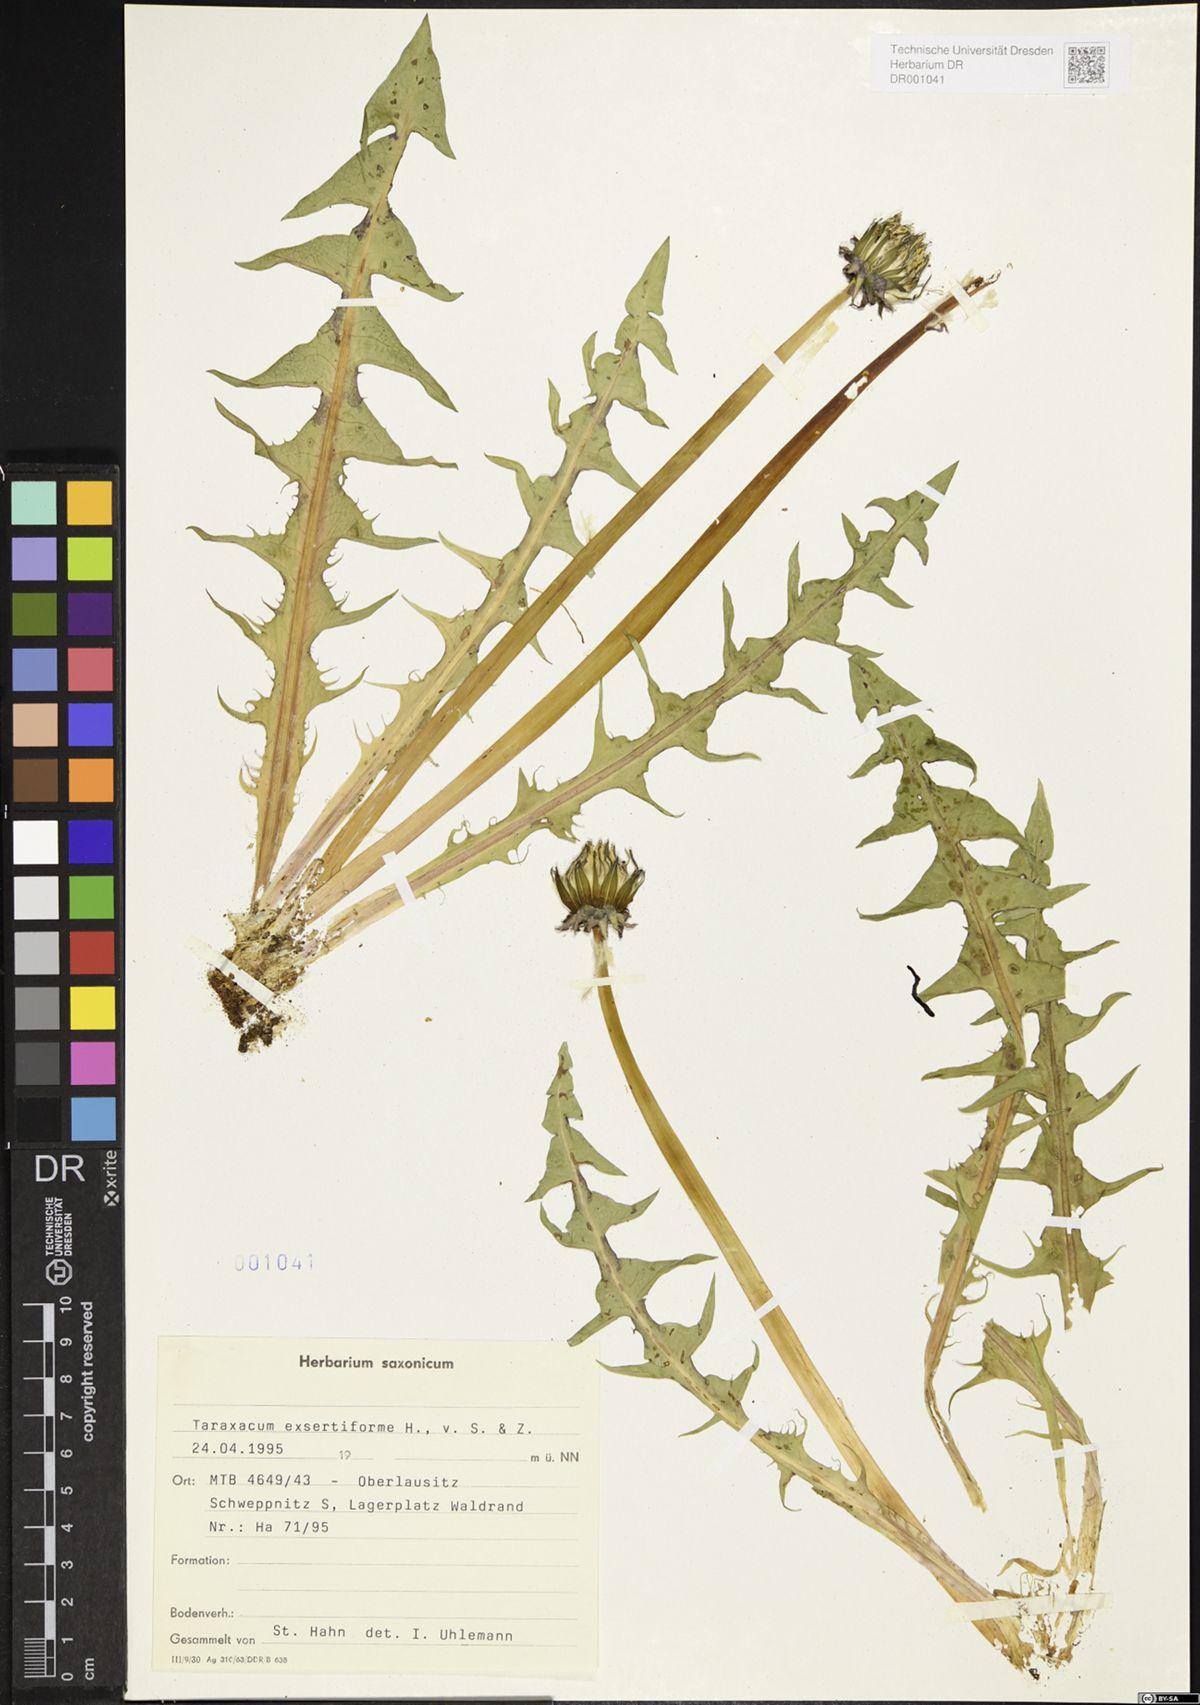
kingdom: Plantae
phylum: Tracheophyta
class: Magnoliopsida
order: Asterales
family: Asteraceae
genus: Taraxacum
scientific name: Taraxacum exsertiforme
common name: Erect-bracted dandelion
